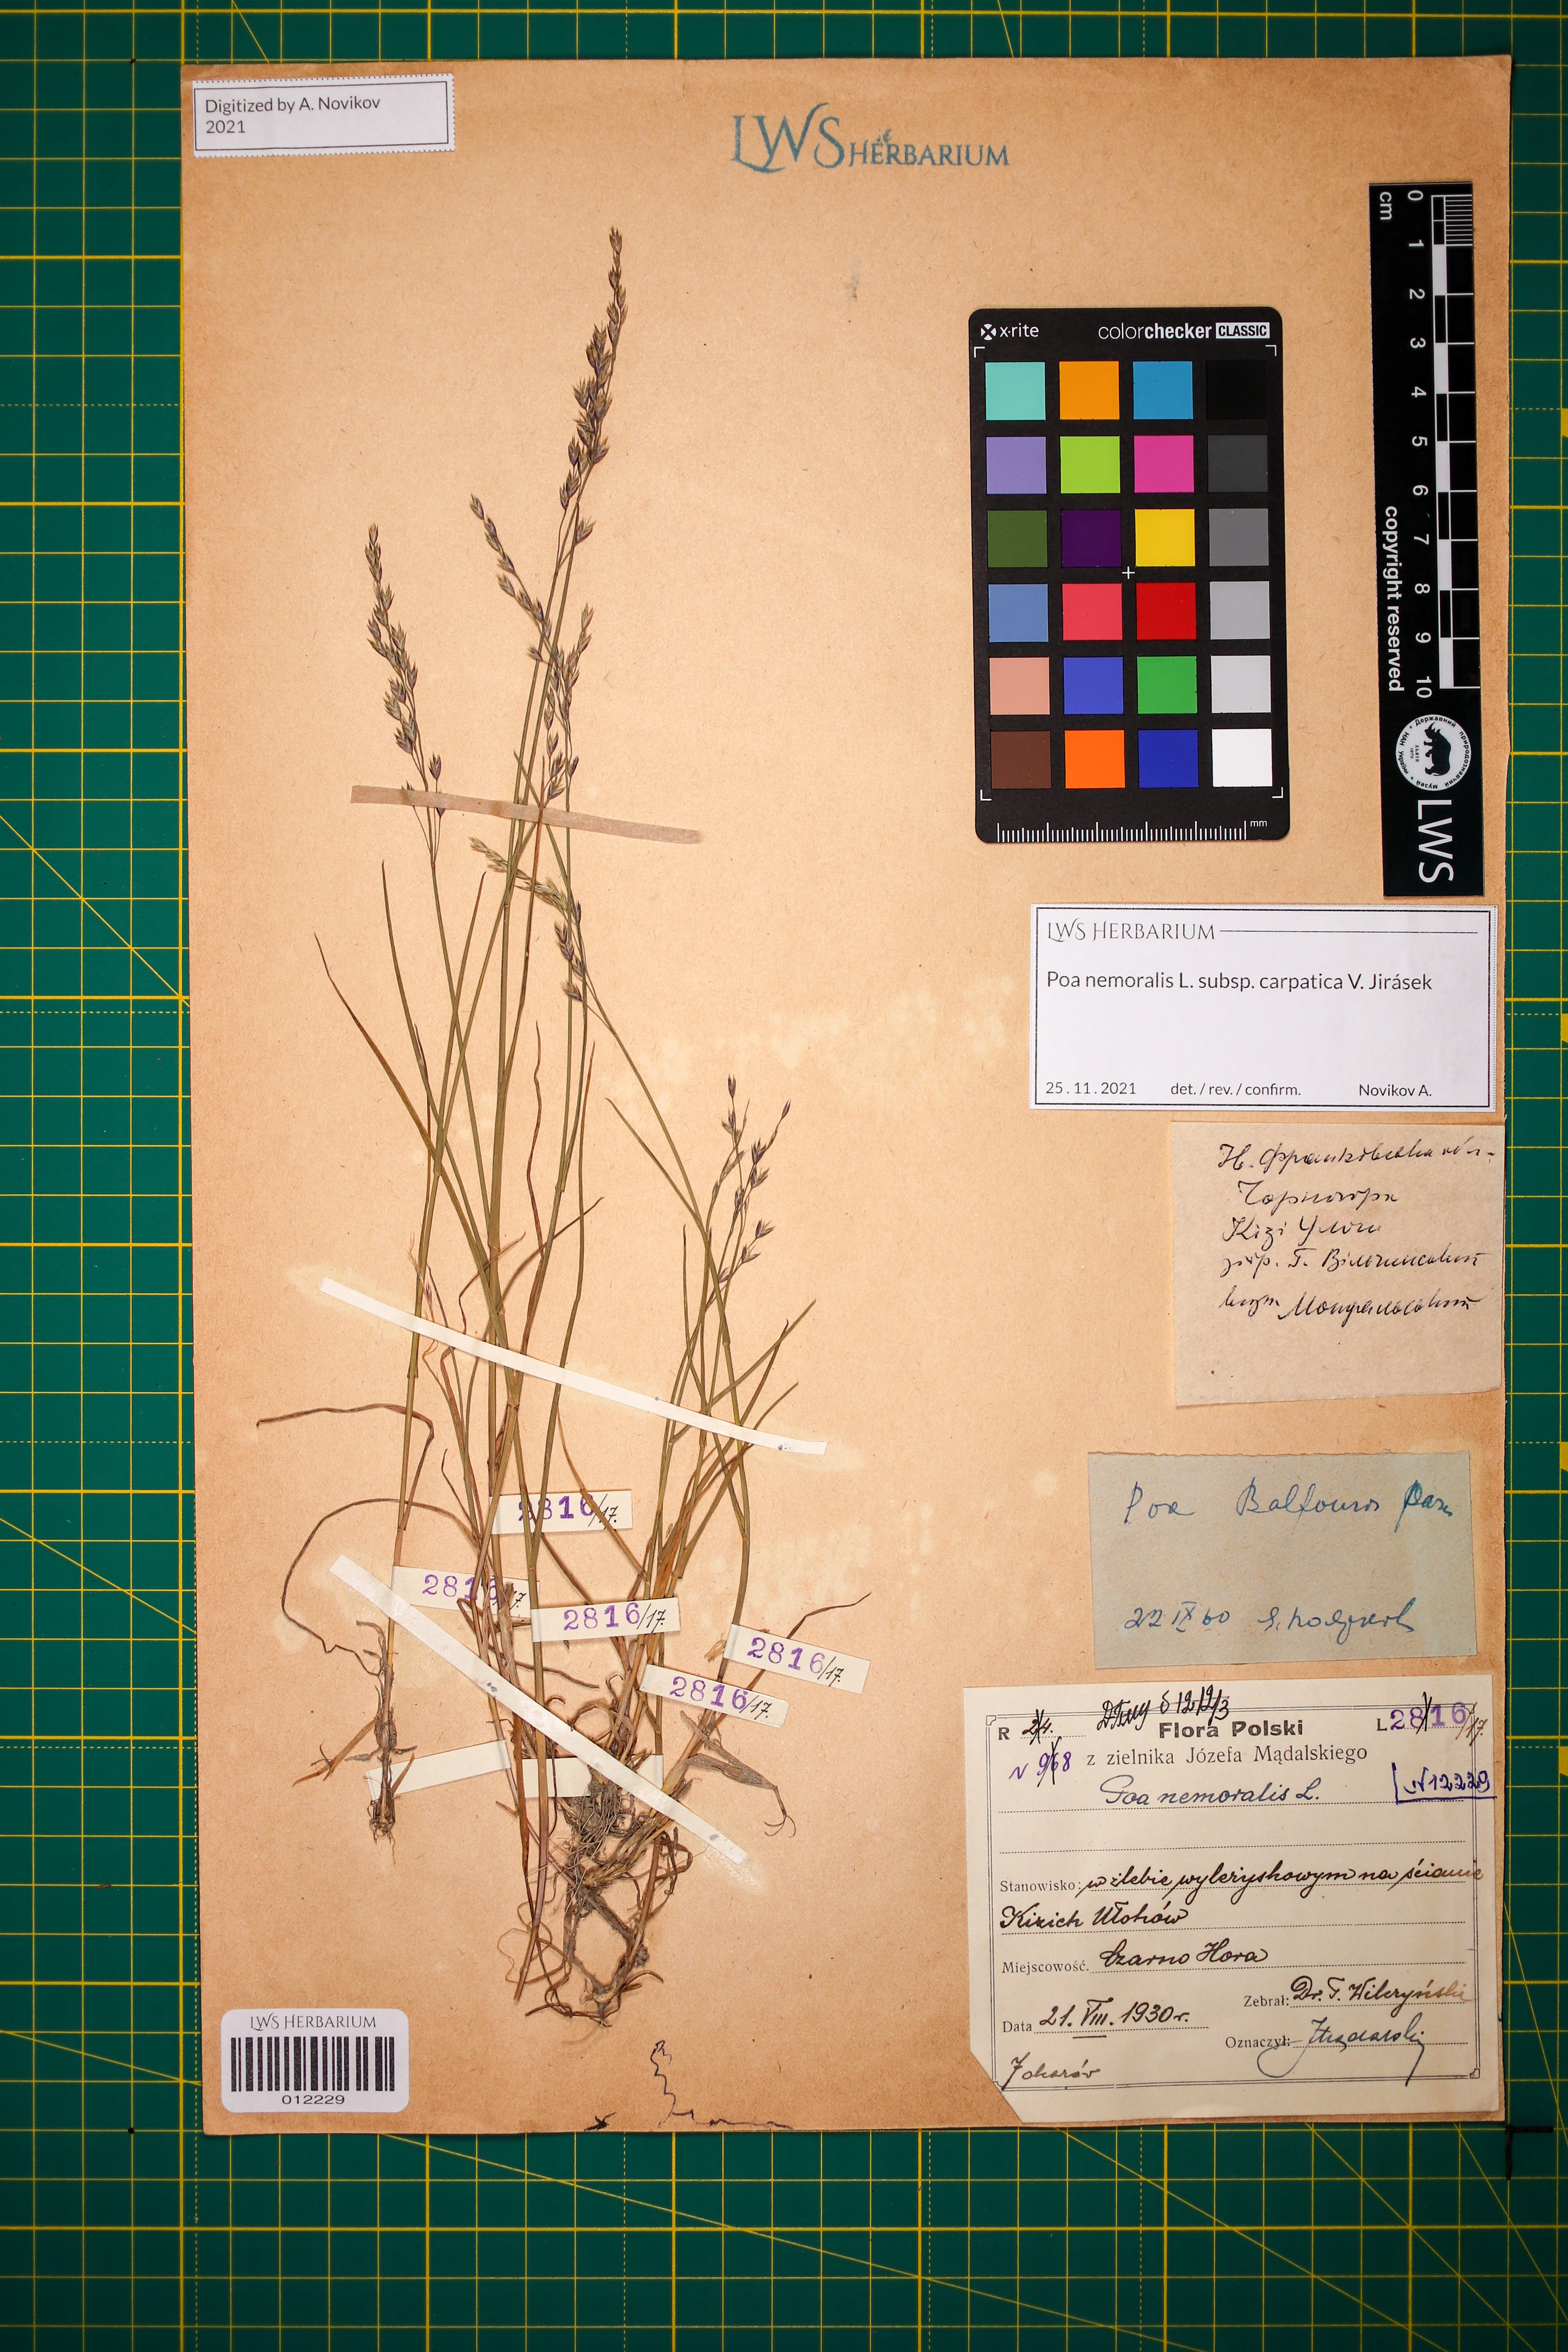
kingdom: Plantae
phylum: Tracheophyta
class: Liliopsida
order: Poales
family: Poaceae
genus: Poa
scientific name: Poa carpatica
